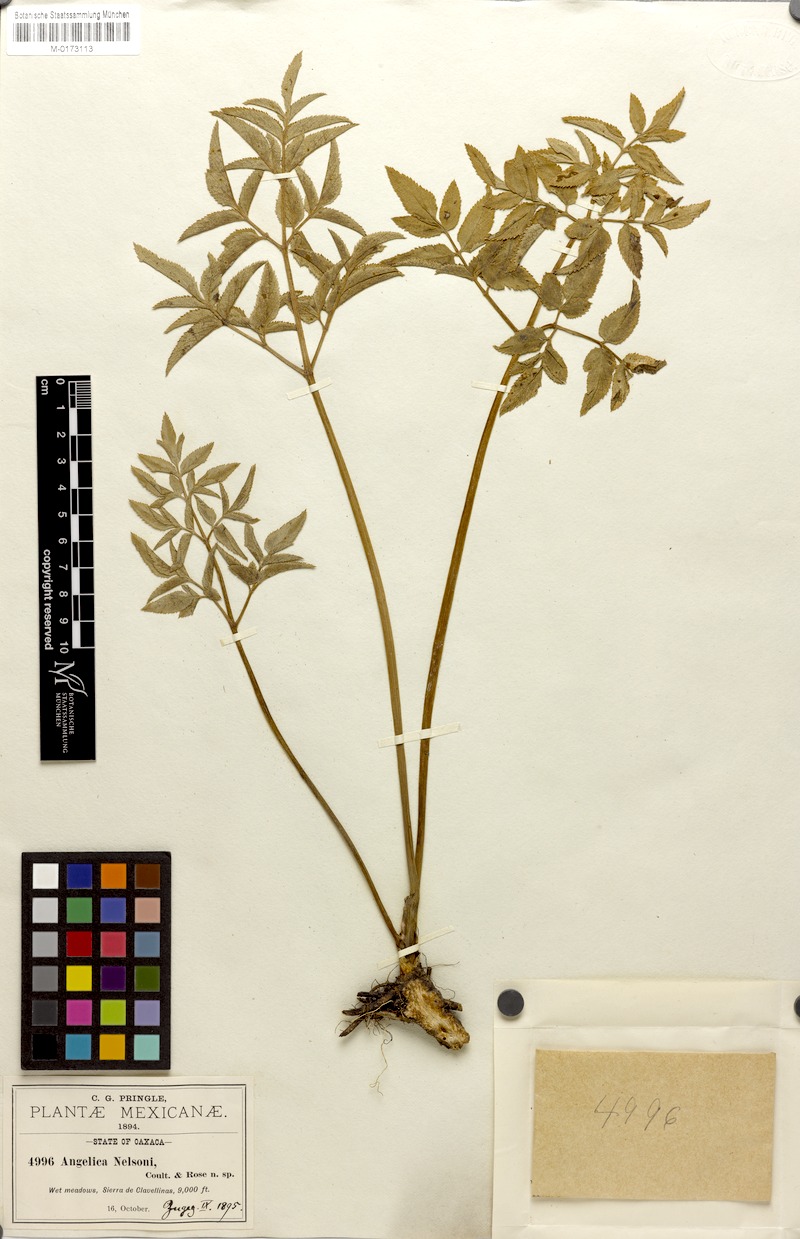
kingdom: Plantae
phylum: Tracheophyta
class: Magnoliopsida
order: Apiales
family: Apiaceae
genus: Angelica
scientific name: Angelica nelsonii
